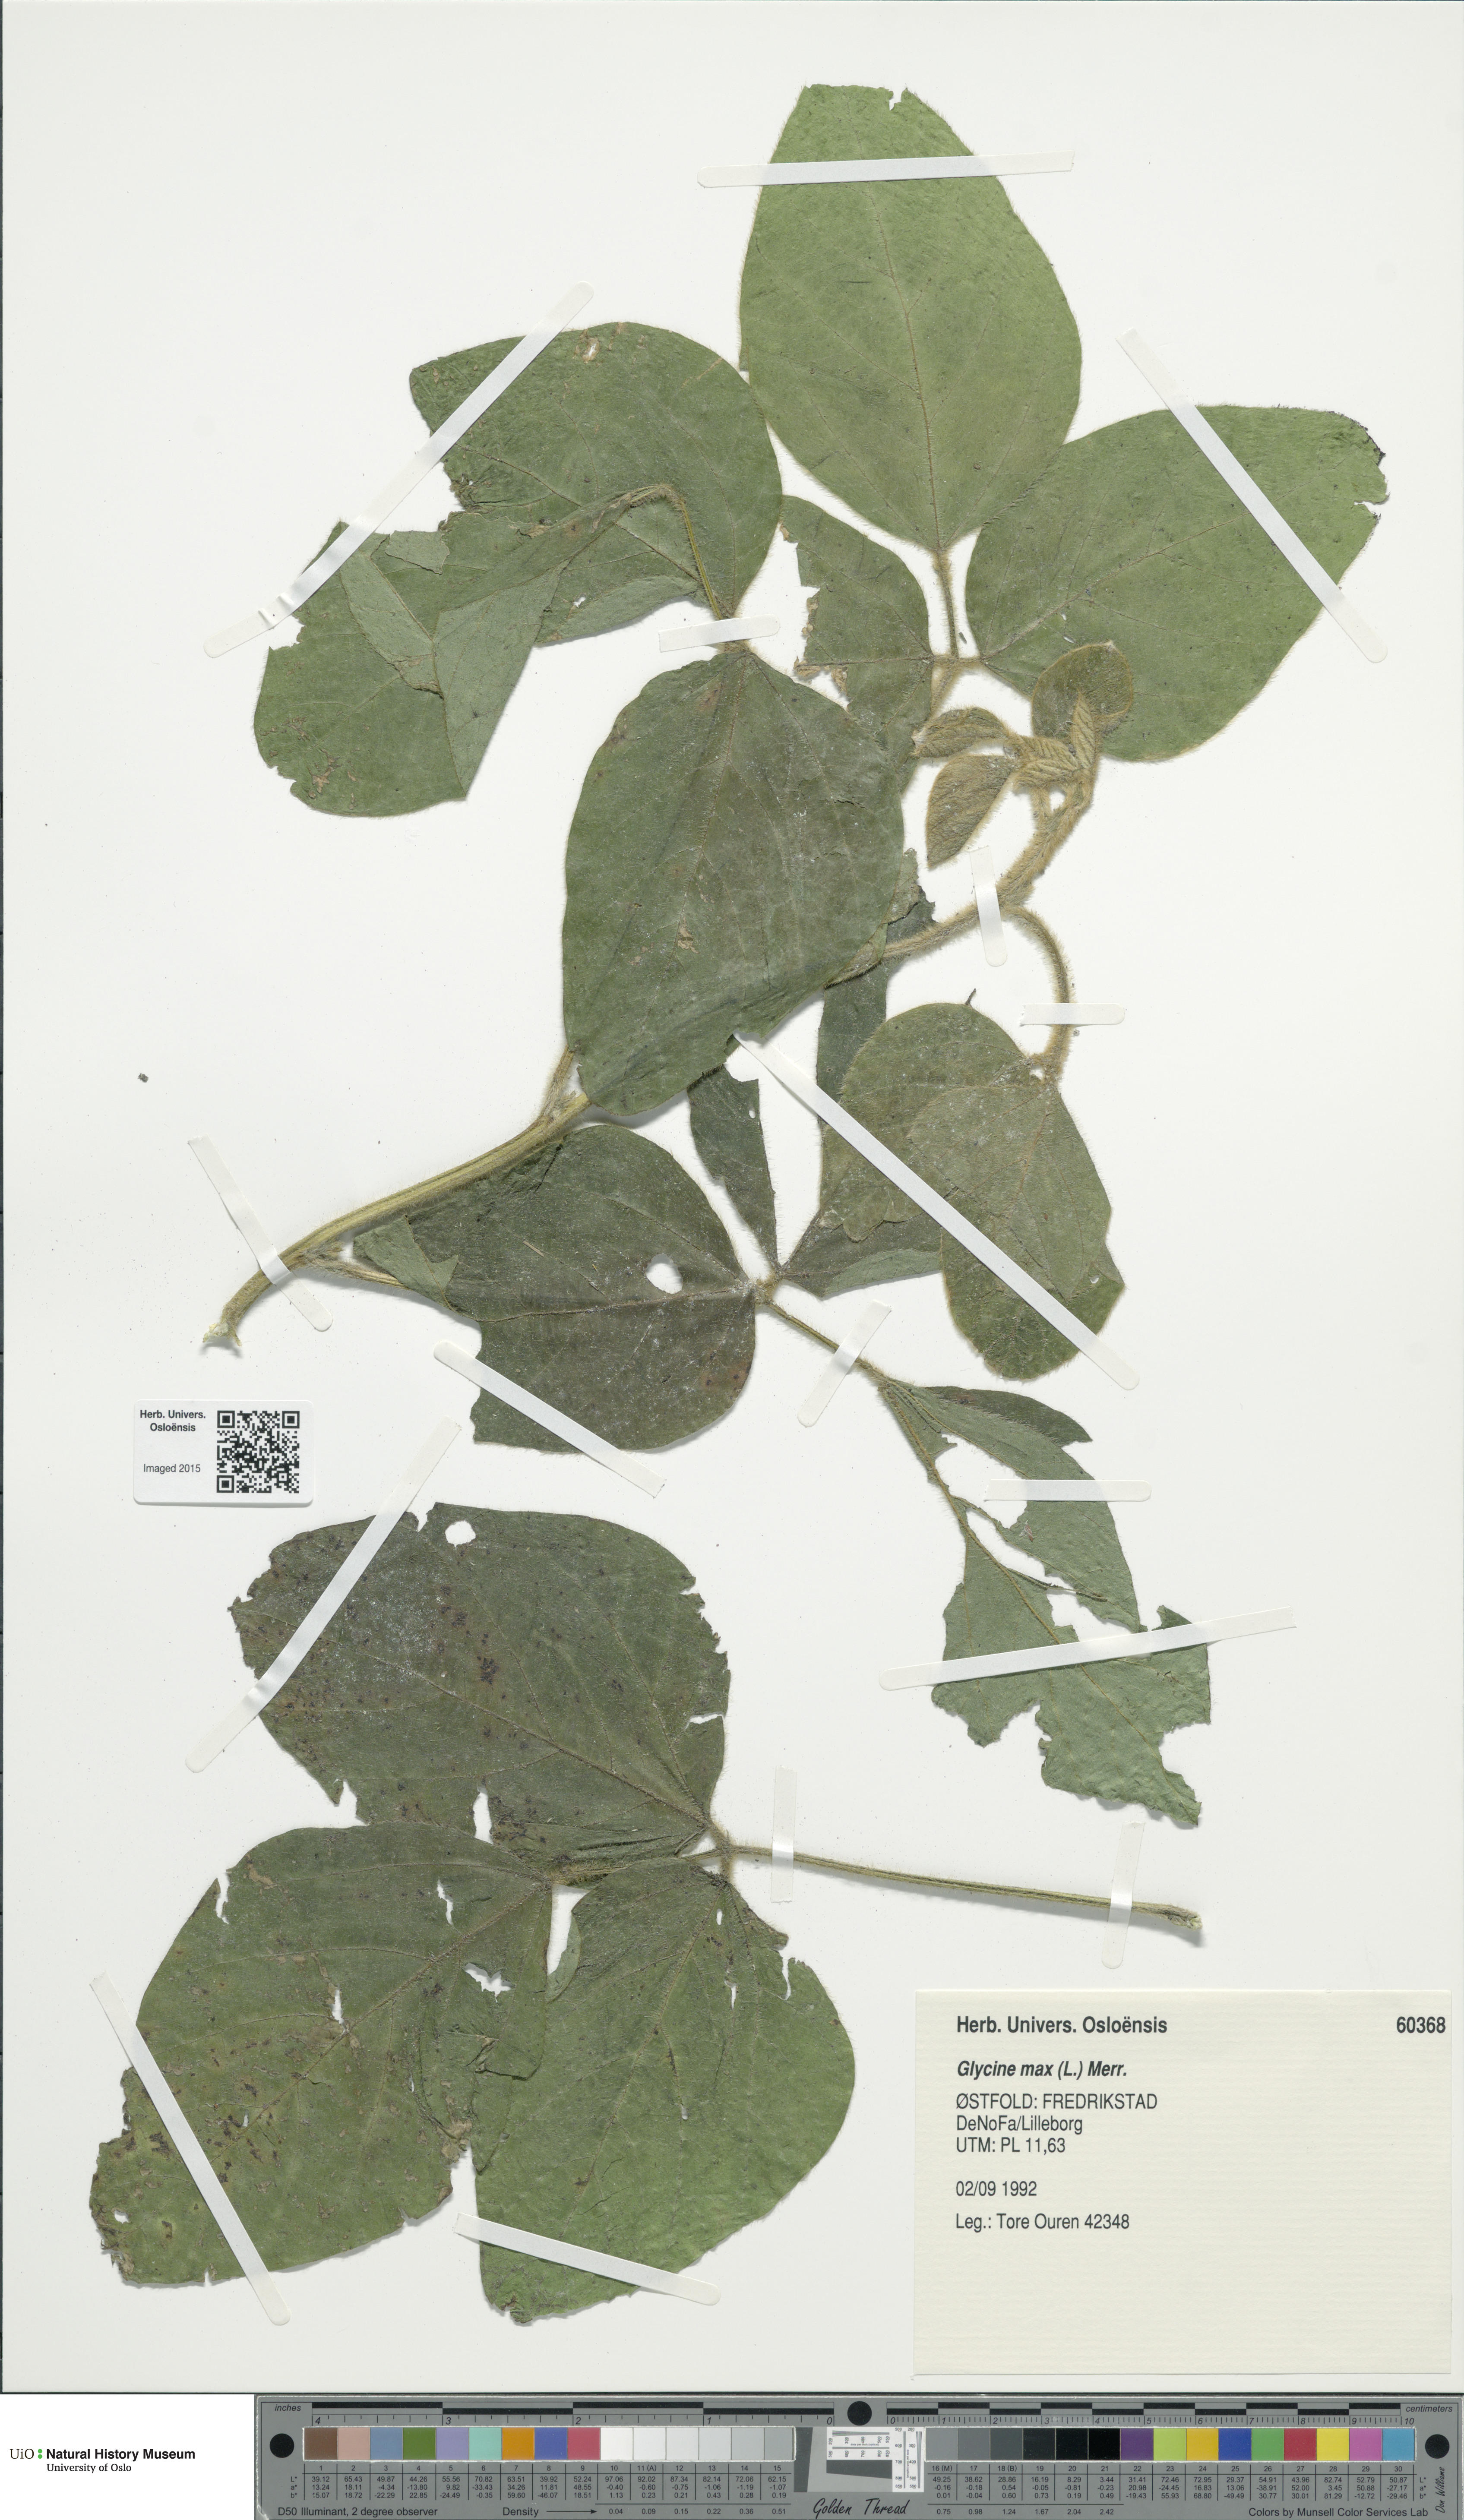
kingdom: Plantae
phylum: Tracheophyta
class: Magnoliopsida
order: Fabales
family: Fabaceae
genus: Glycine
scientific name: Glycine max
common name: Soya-bean
